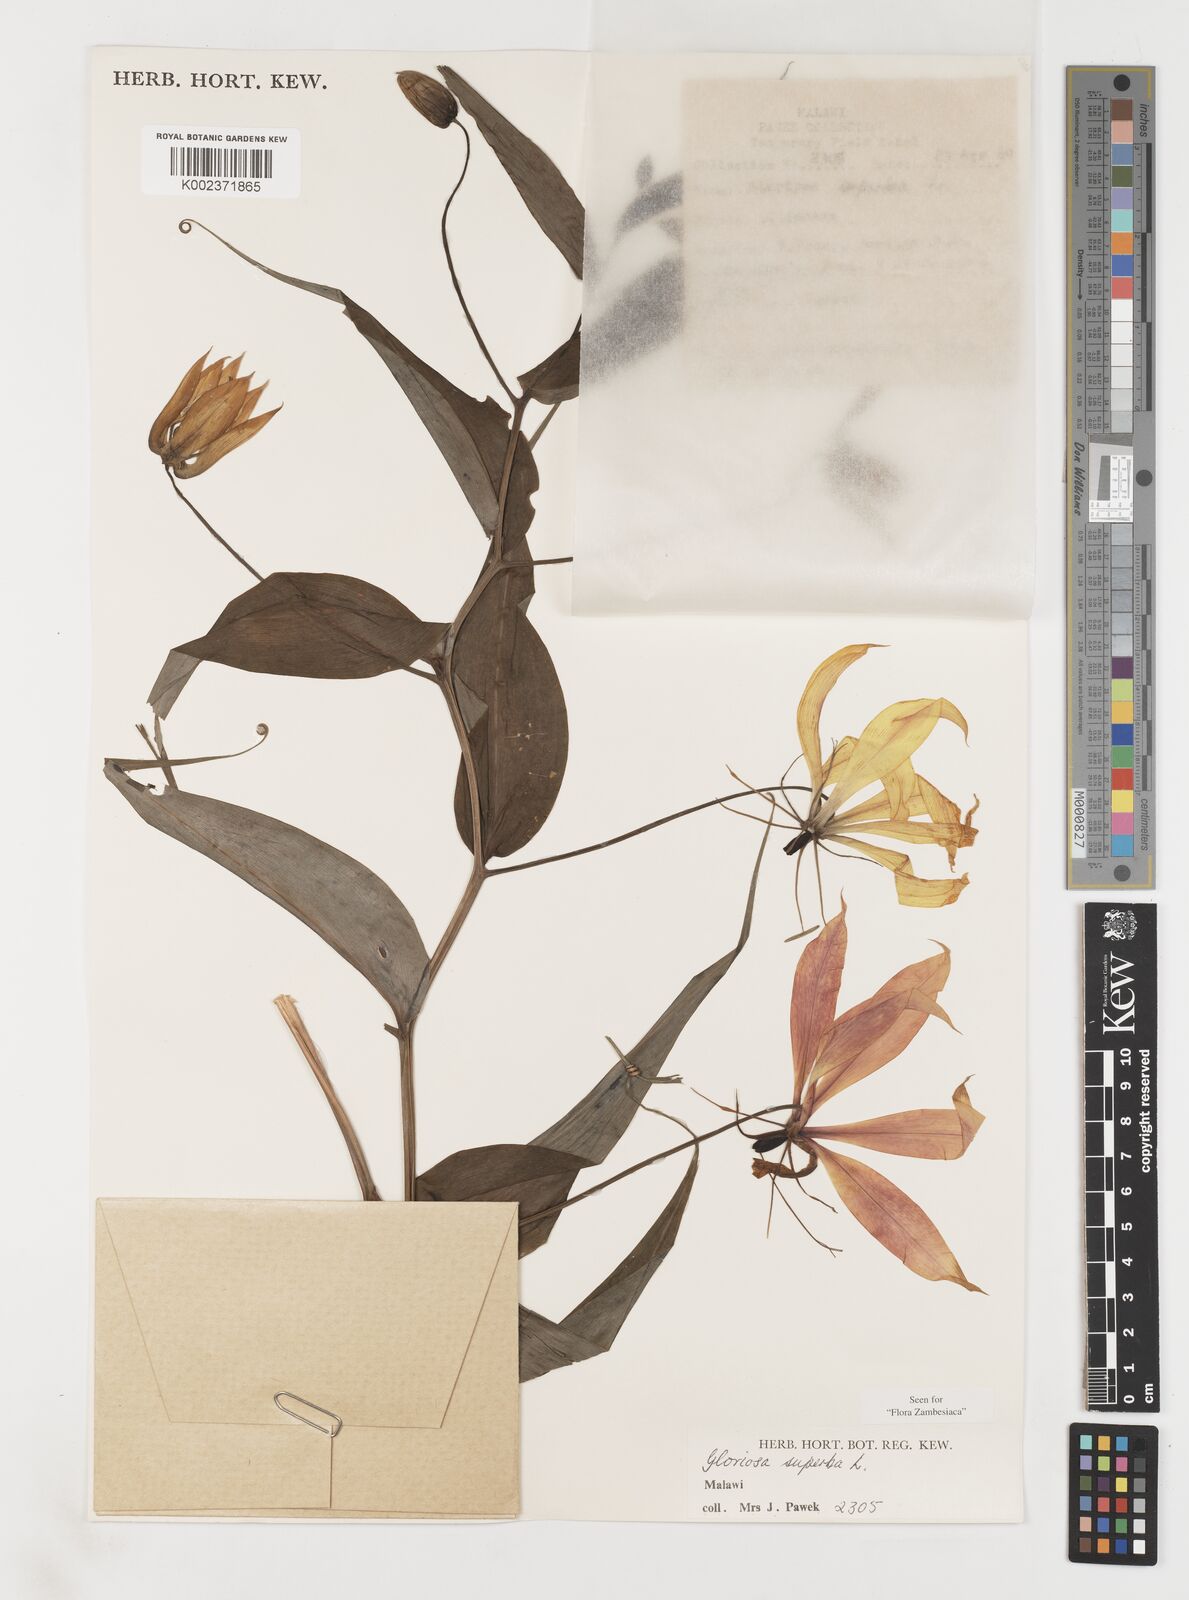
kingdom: Plantae
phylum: Tracheophyta
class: Liliopsida
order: Liliales
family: Colchicaceae
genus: Gloriosa
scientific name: Gloriosa simplex
